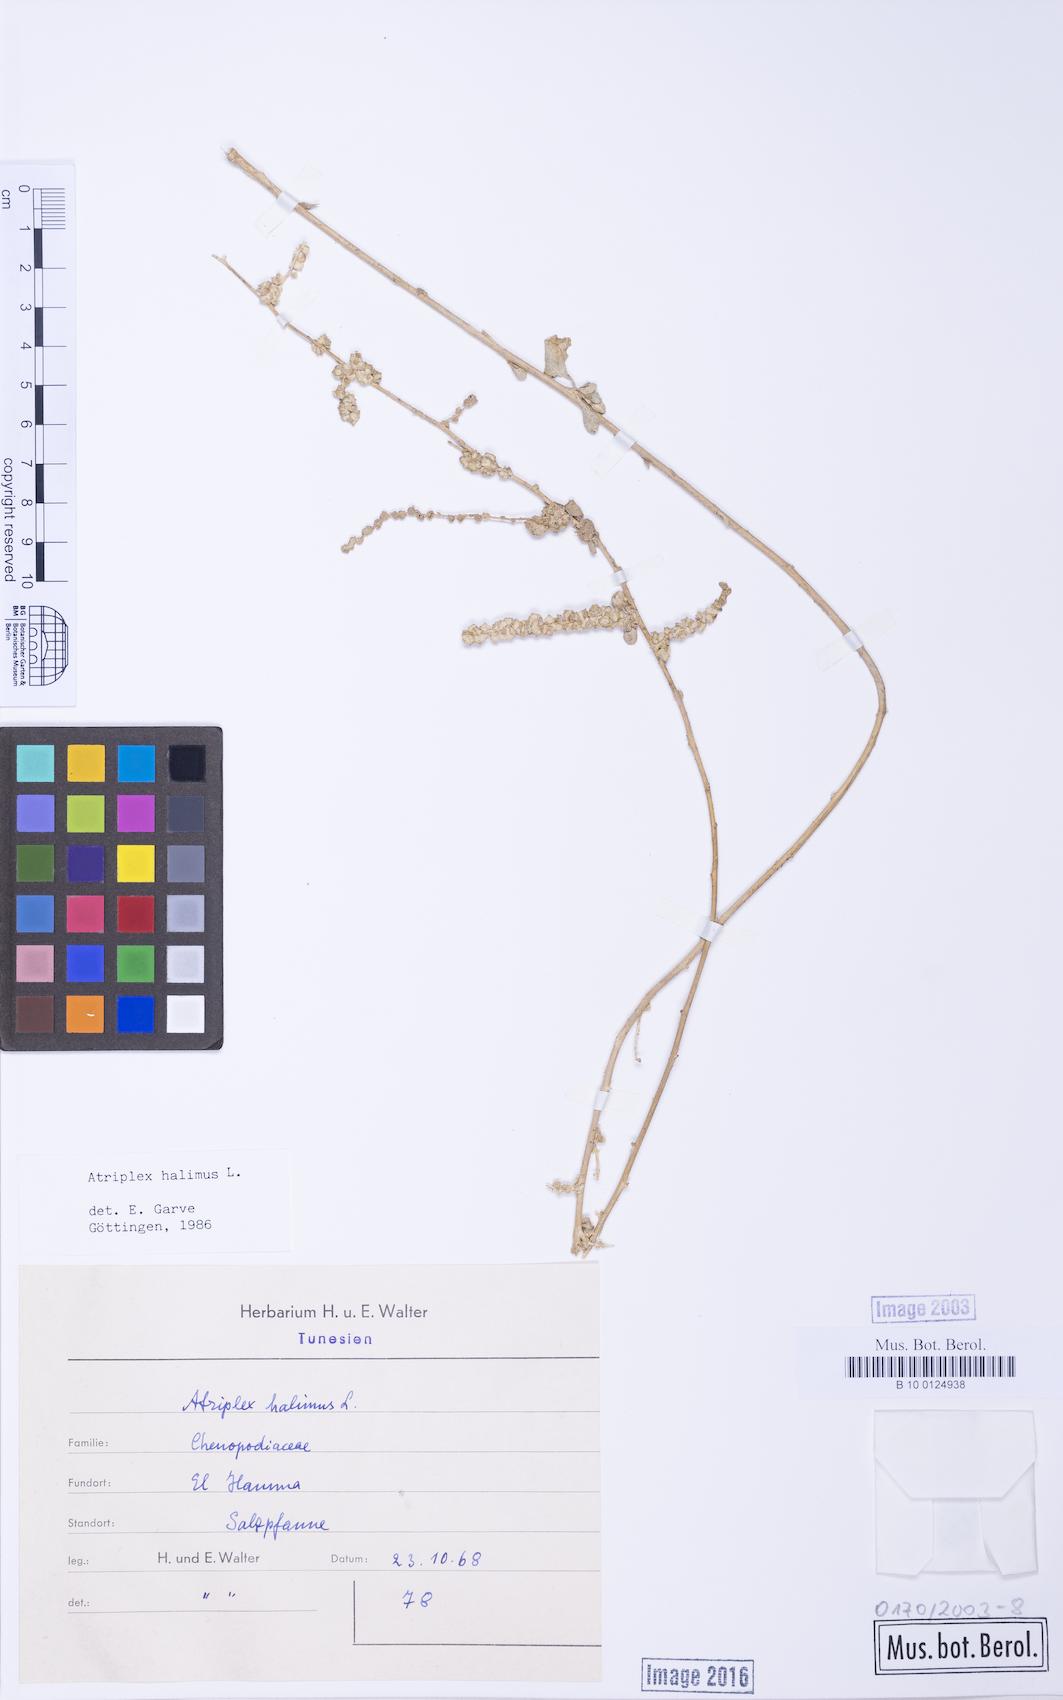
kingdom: Plantae
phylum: Tracheophyta
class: Magnoliopsida
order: Caryophyllales
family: Amaranthaceae
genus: Atriplex
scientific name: Atriplex halimus
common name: Shrubby orache
